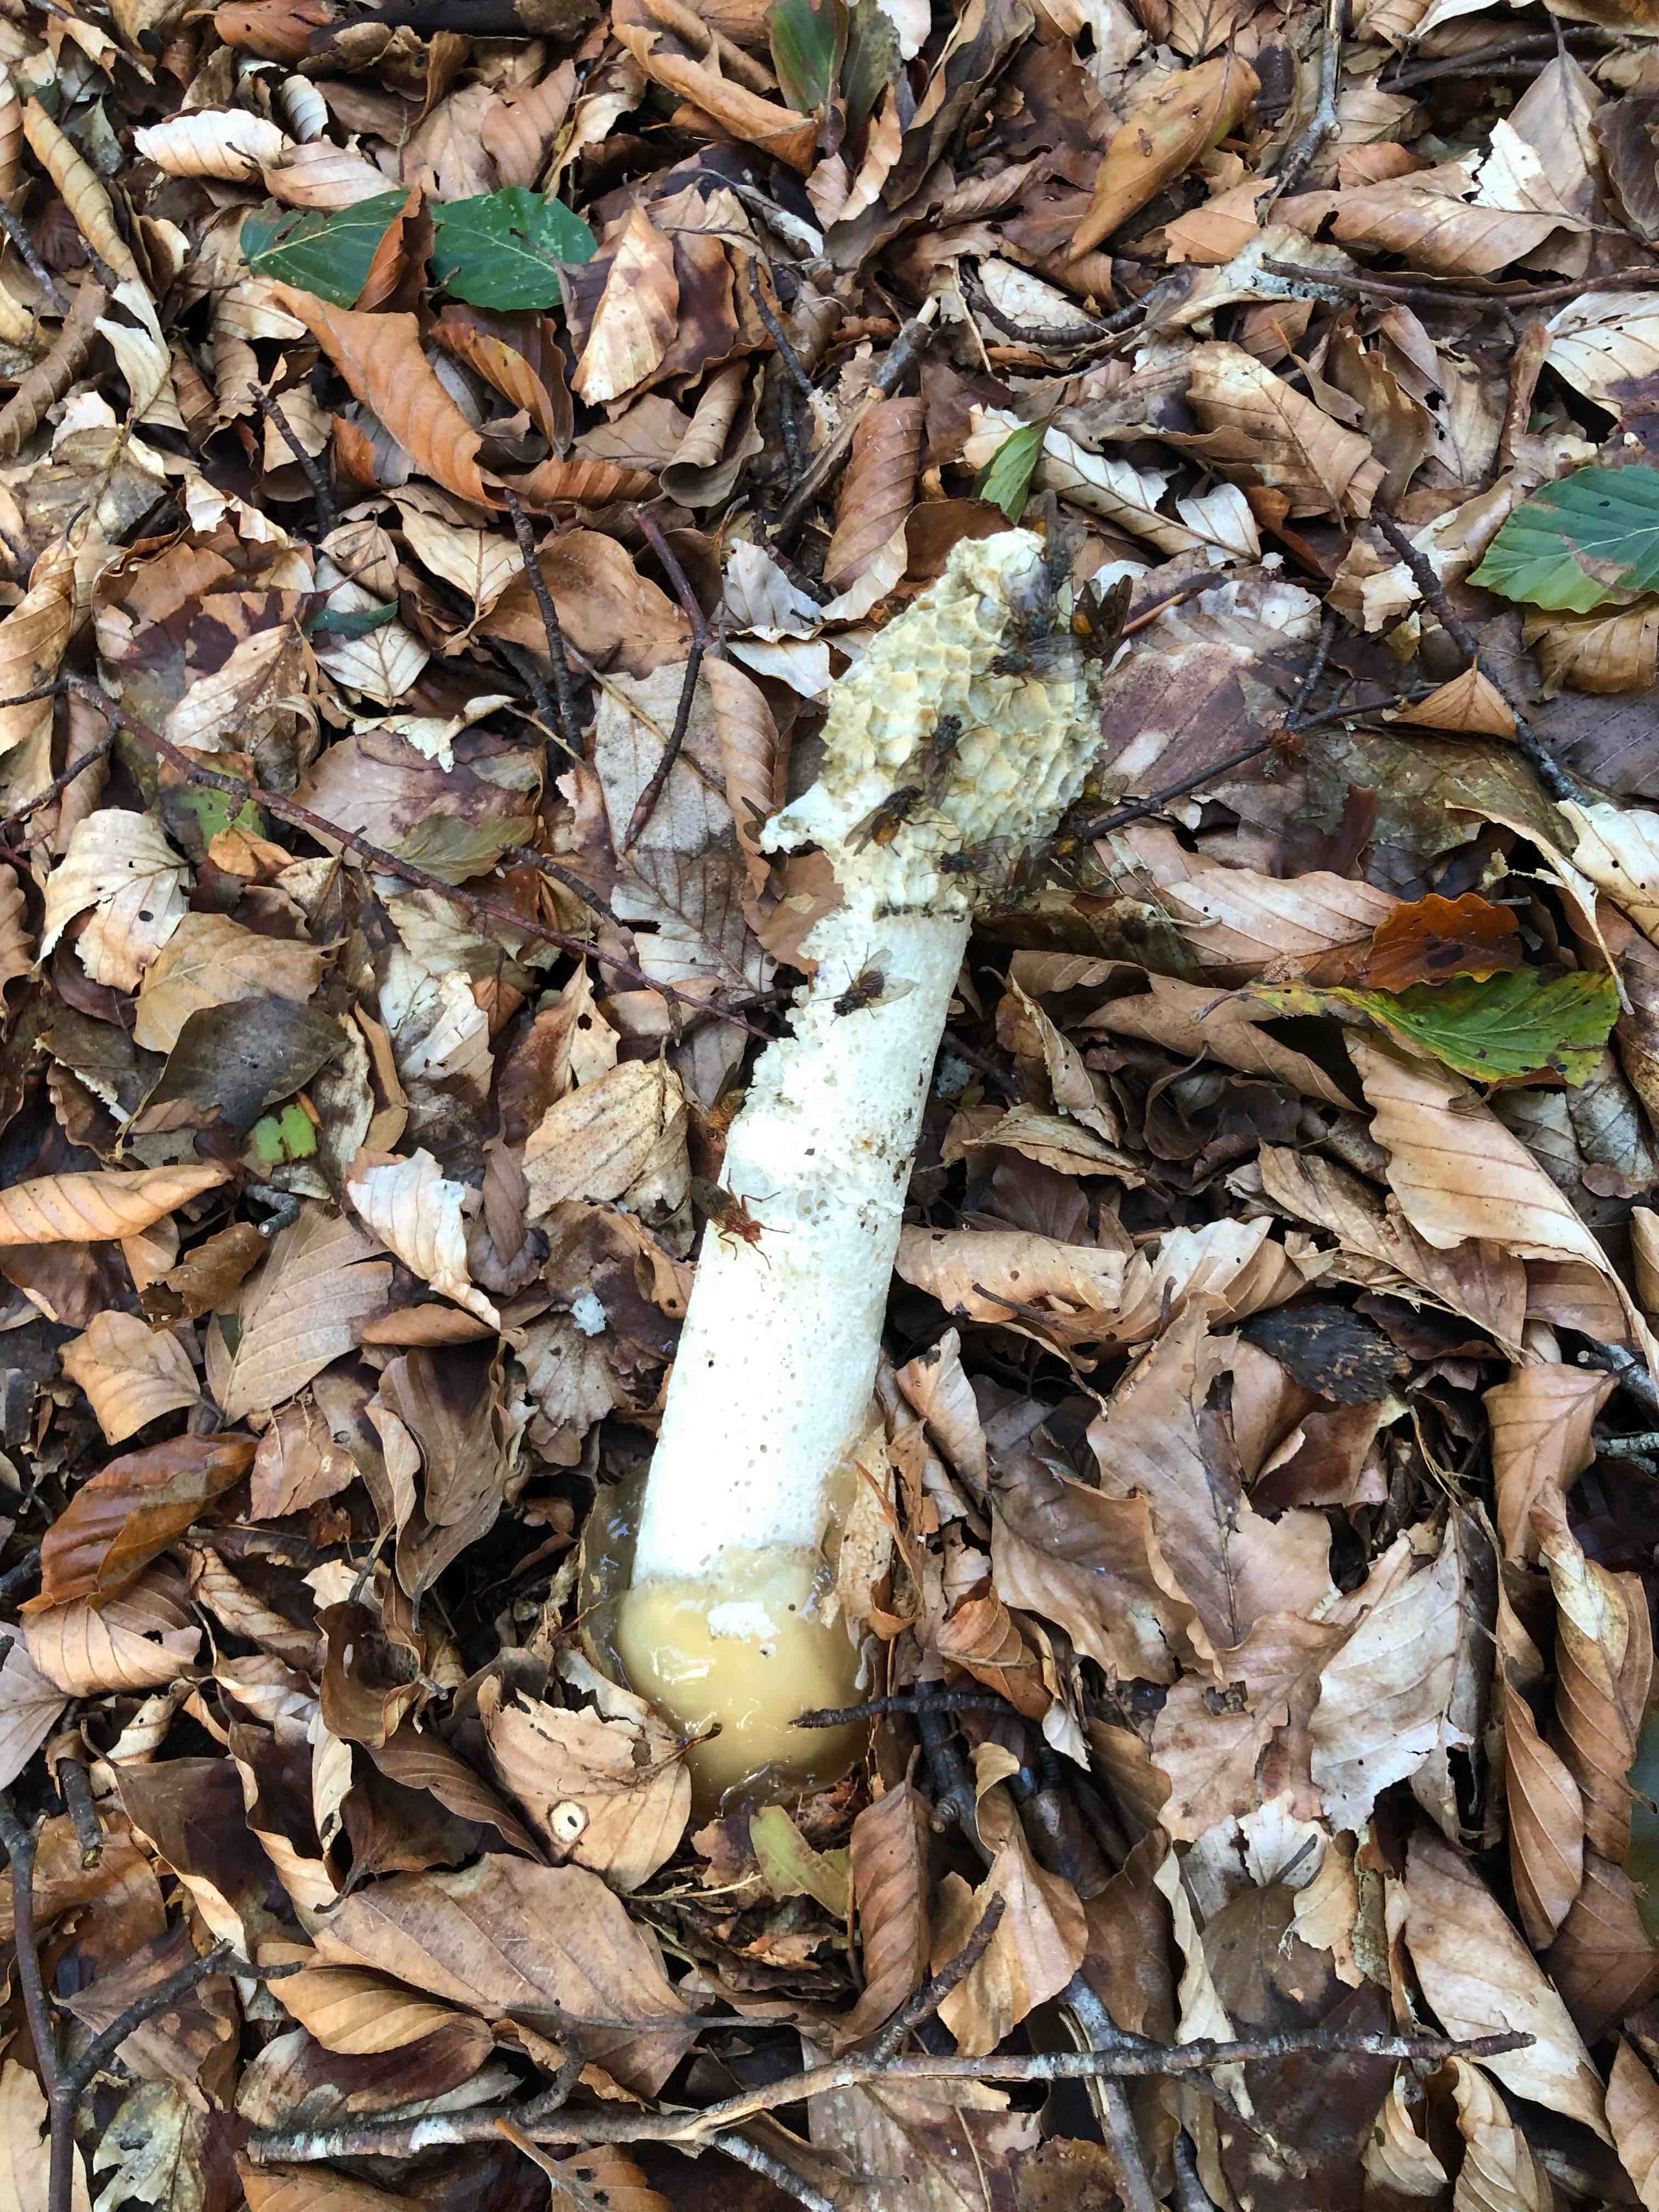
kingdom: Fungi
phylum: Basidiomycota
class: Agaricomycetes
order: Phallales
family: Phallaceae
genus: Phallus
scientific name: Phallus impudicus
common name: almindelig stinksvamp
